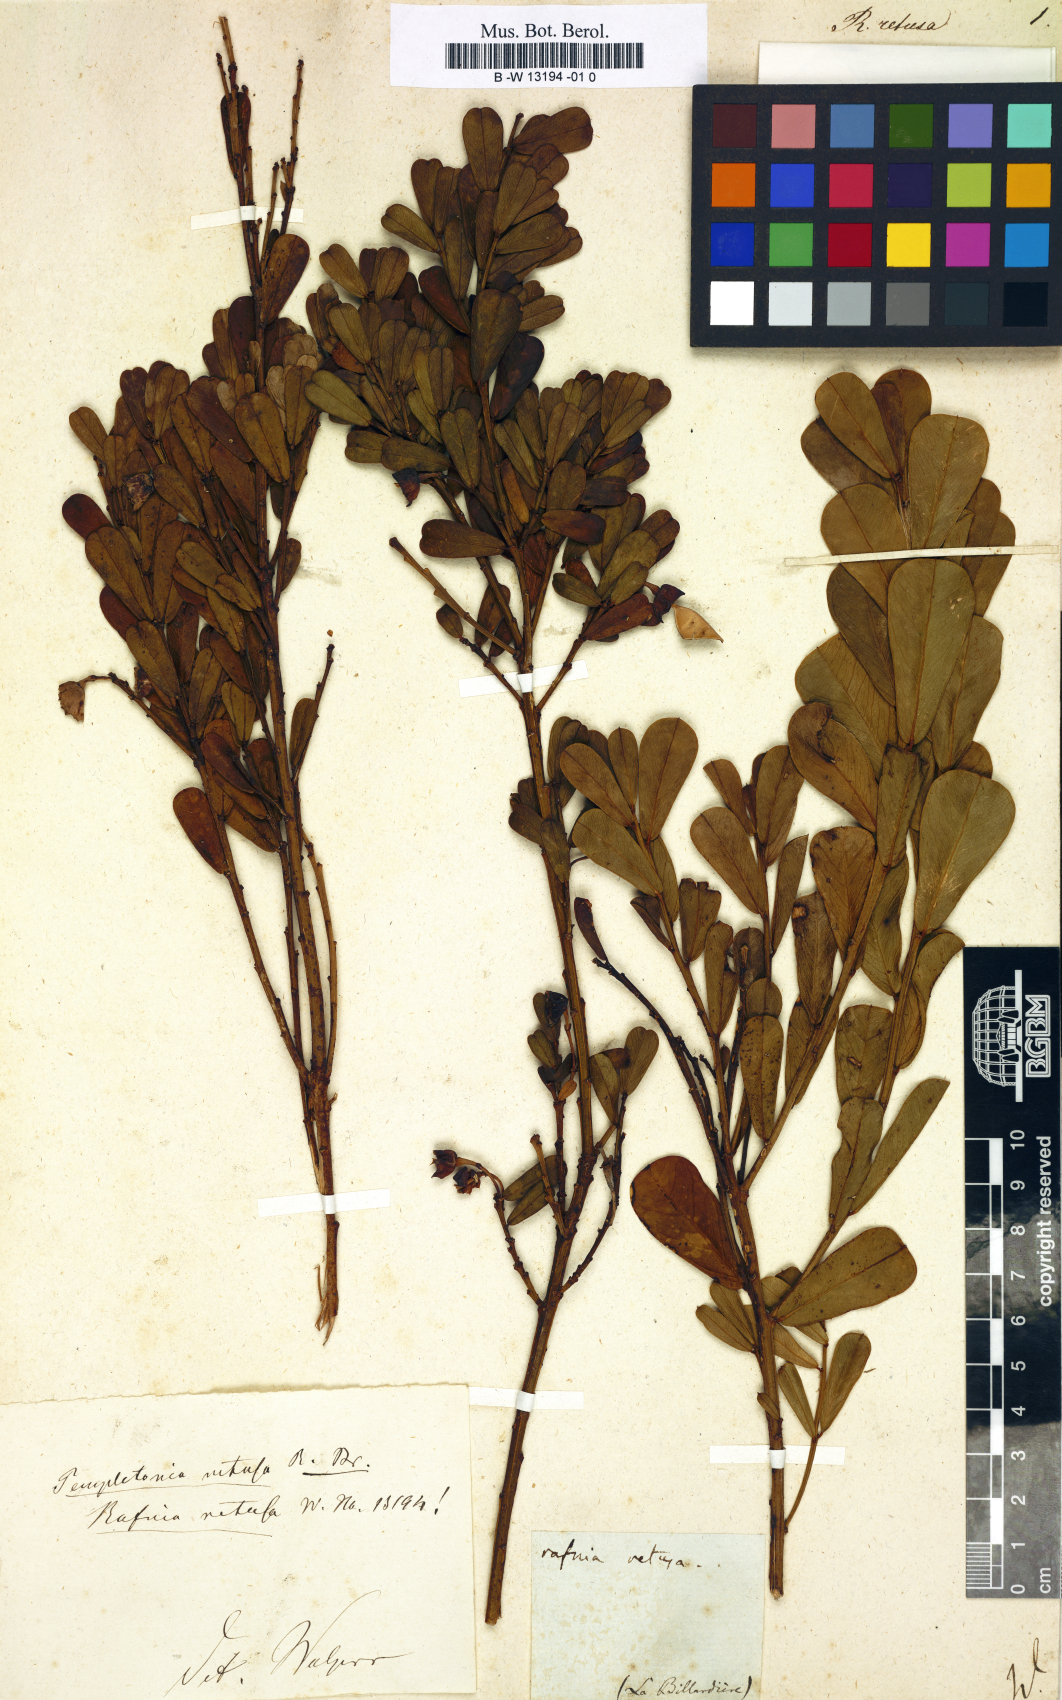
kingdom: Plantae
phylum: Tracheophyta
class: Magnoliopsida
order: Fabales
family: Fabaceae
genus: Templetonia
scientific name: Templetonia retusa
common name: Cockies'-tongue
